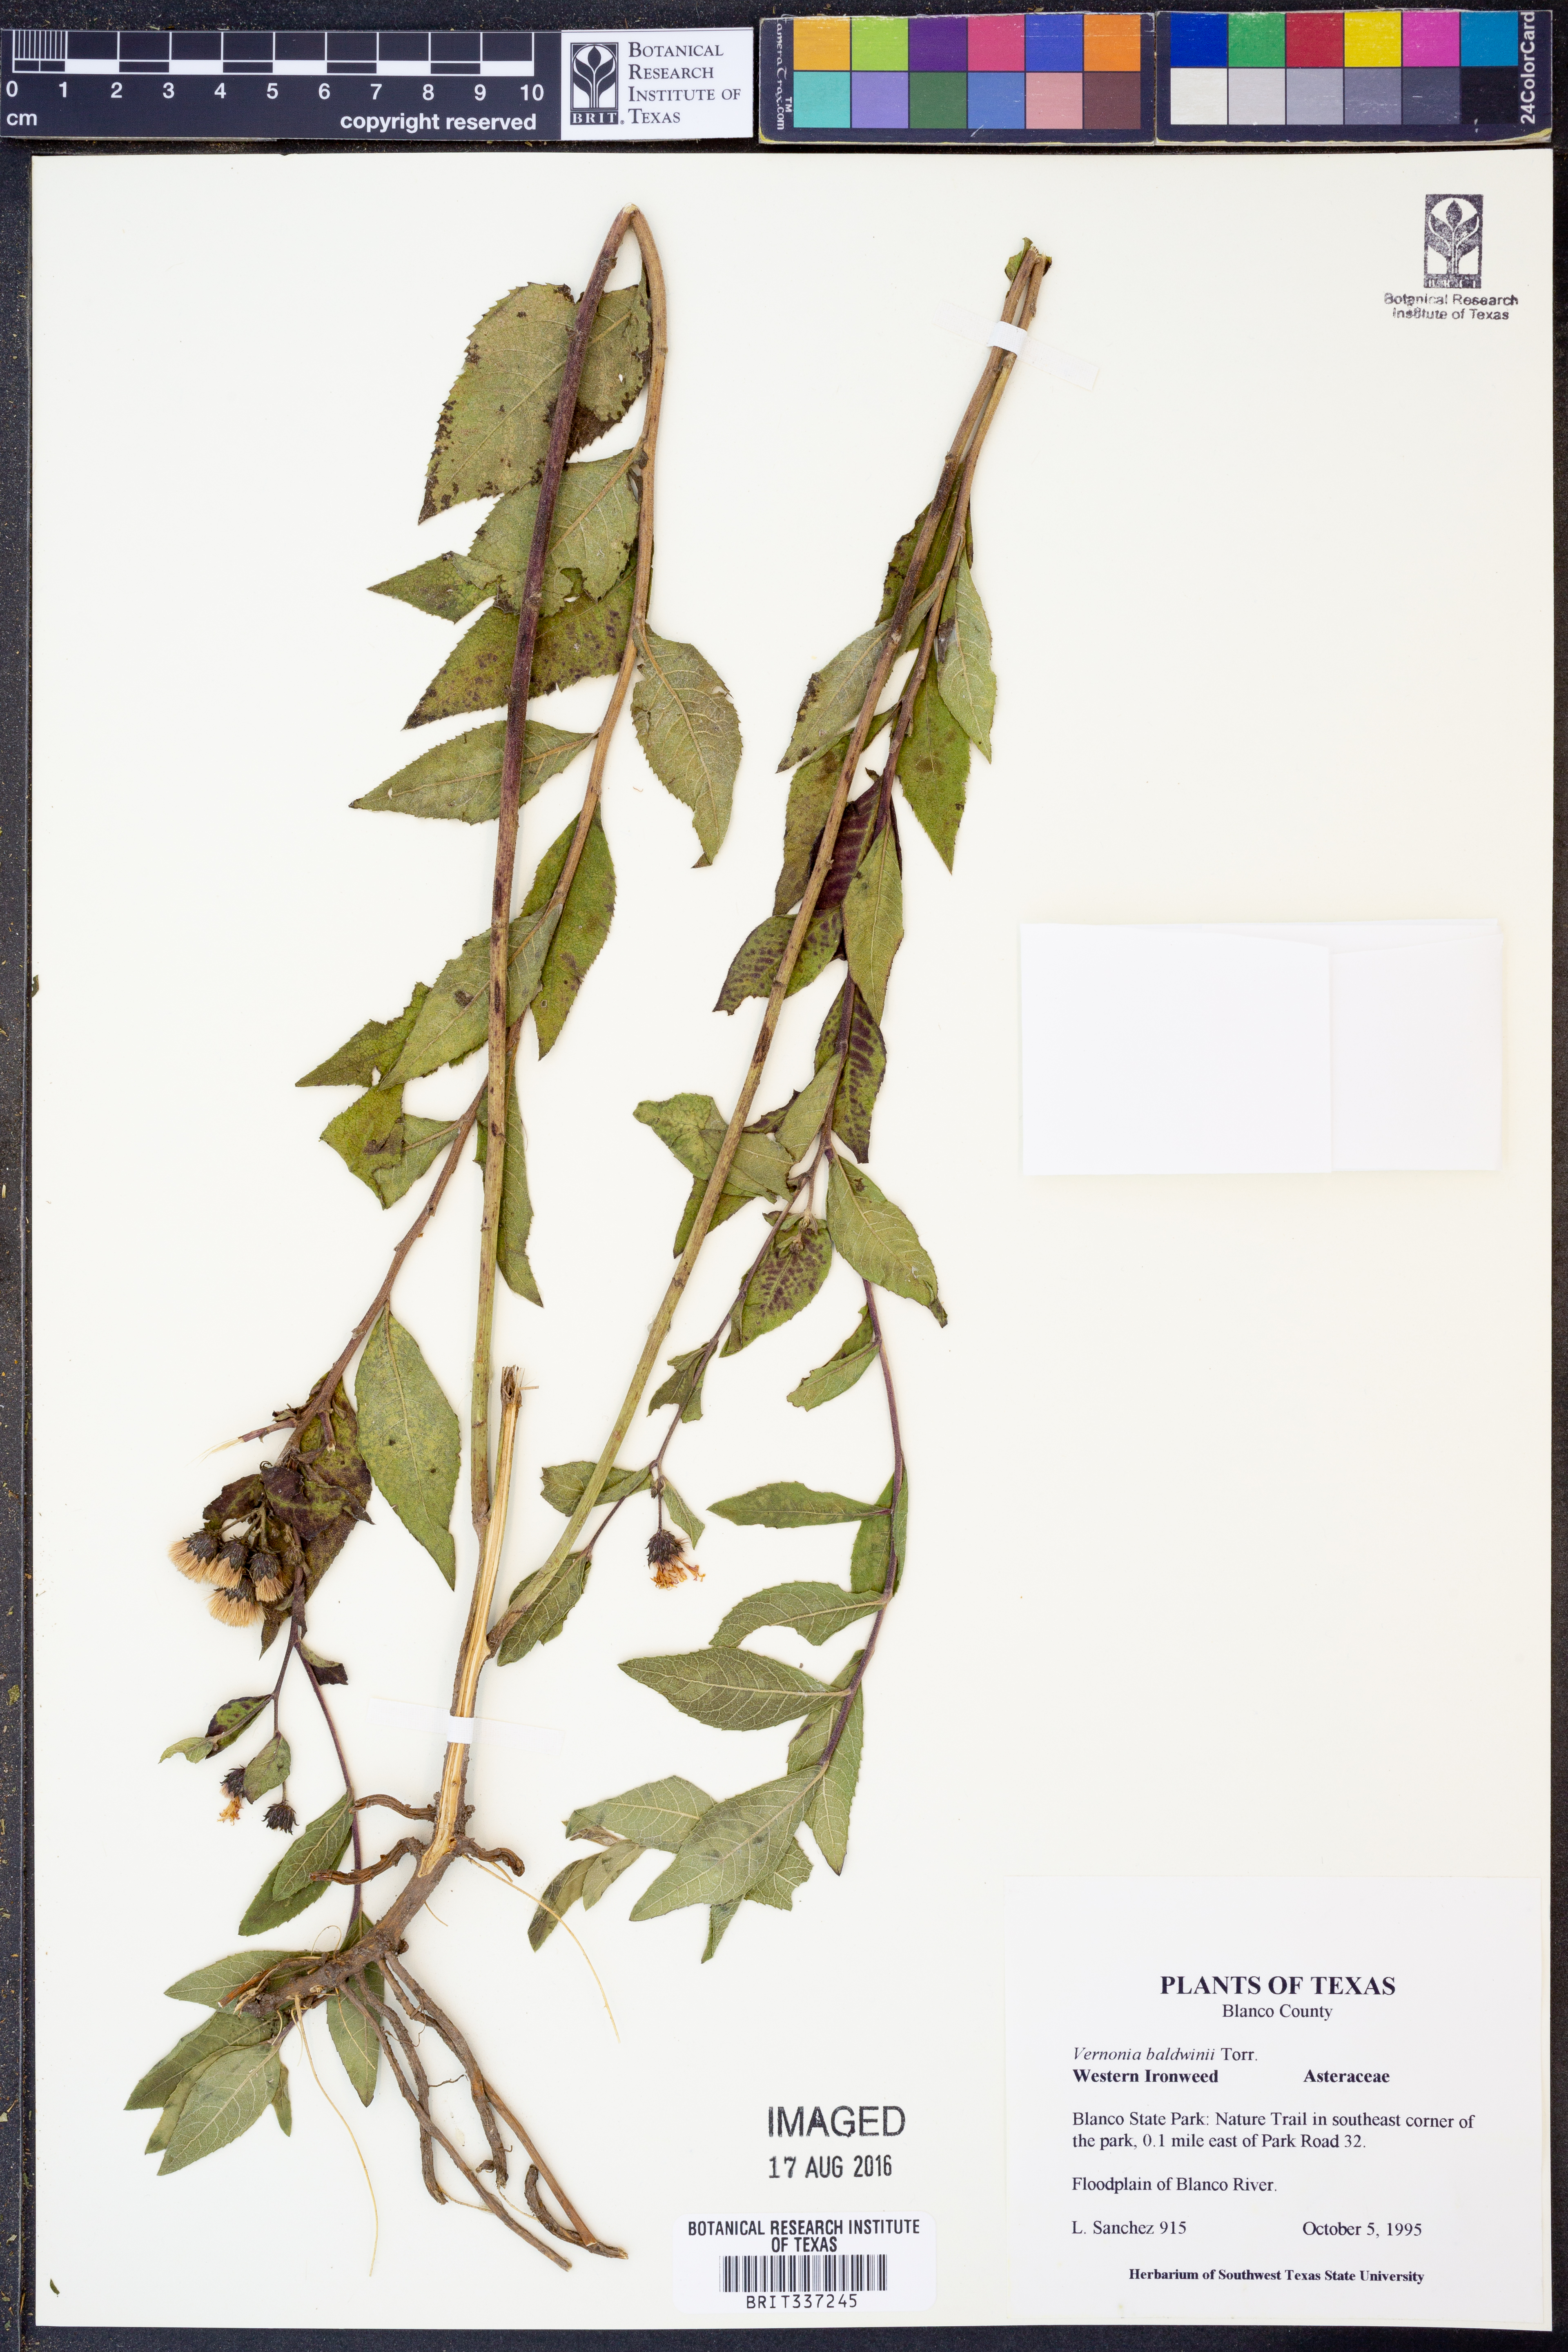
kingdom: Plantae
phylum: Tracheophyta
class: Magnoliopsida
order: Asterales
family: Asteraceae
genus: Vernonia
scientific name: Vernonia baldwinii
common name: Western ironweed
